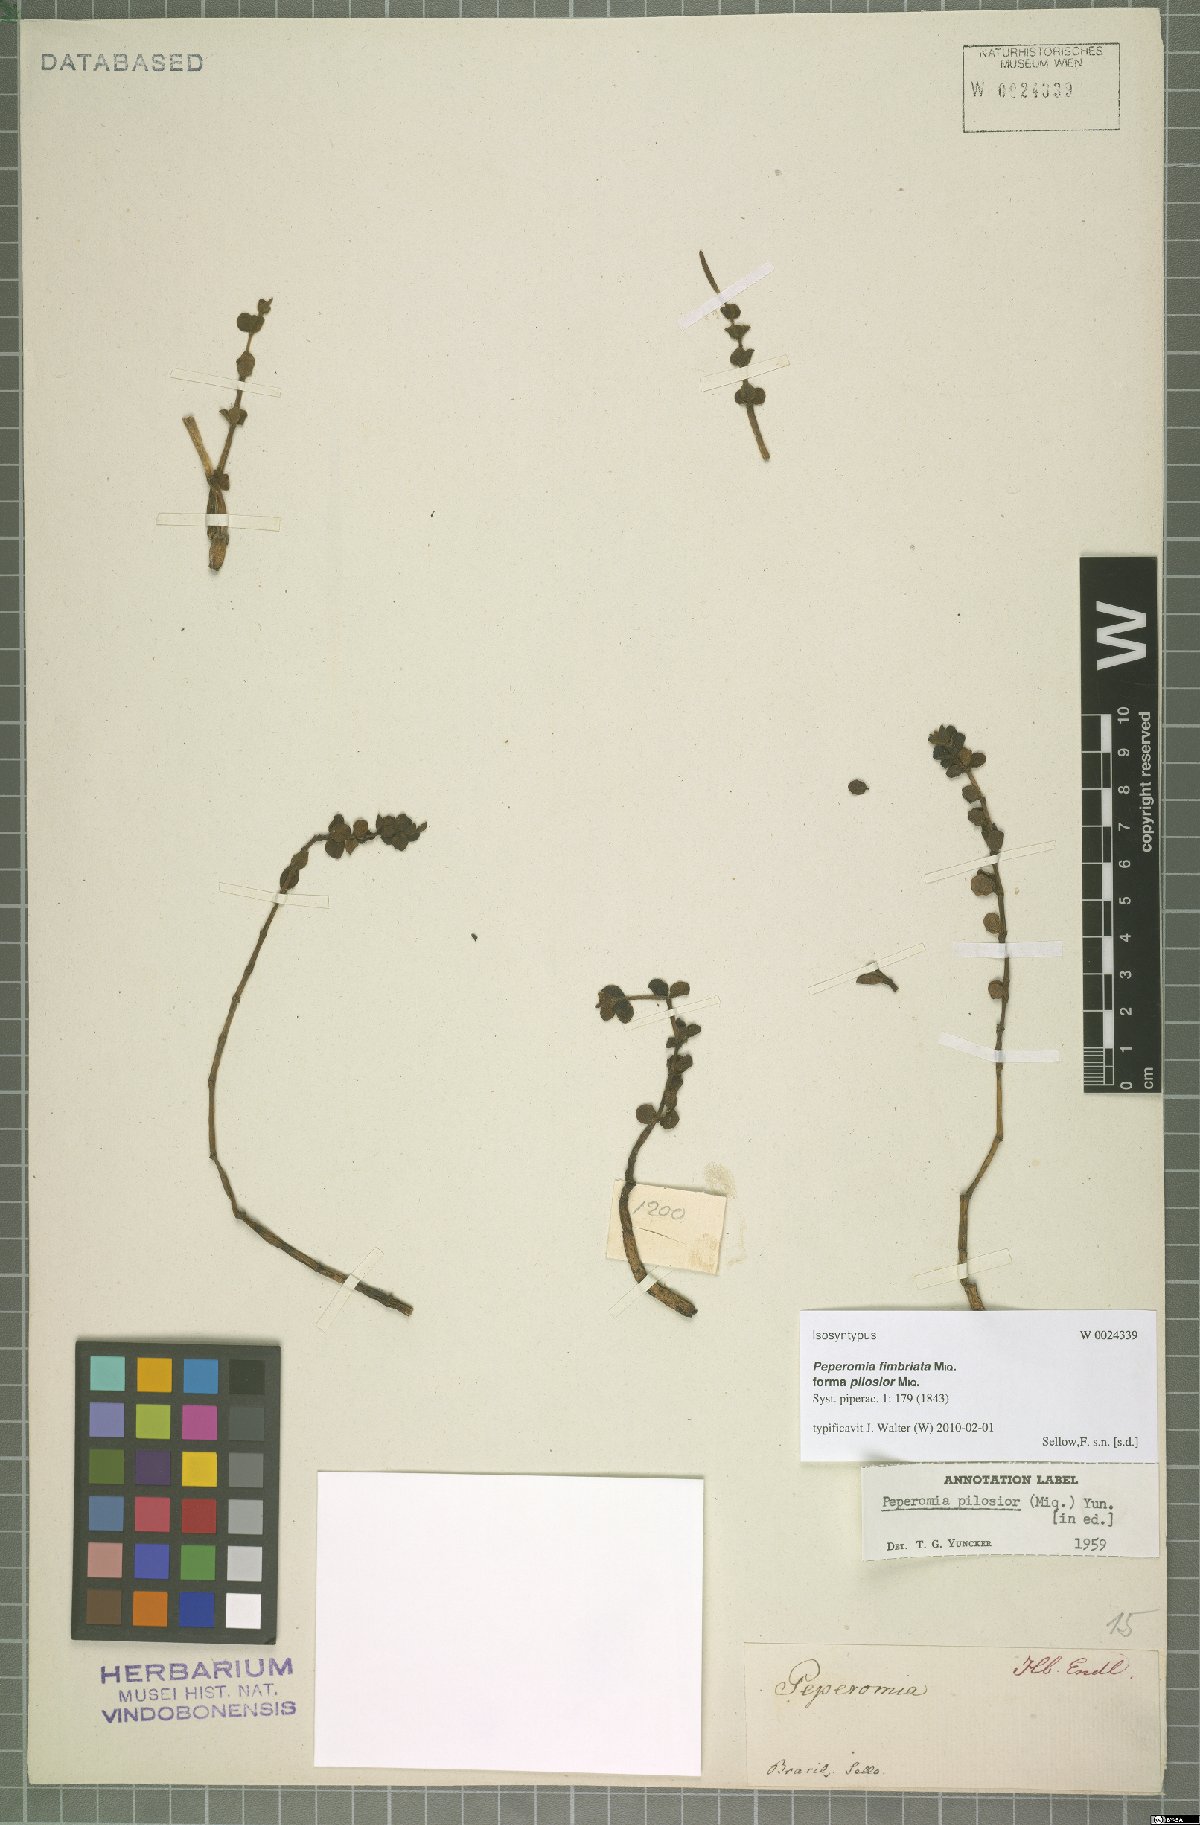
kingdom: Plantae
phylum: Tracheophyta
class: Magnoliopsida
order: Piperales
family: Piperaceae
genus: Peperomia
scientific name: Peperomia subrubrispica
